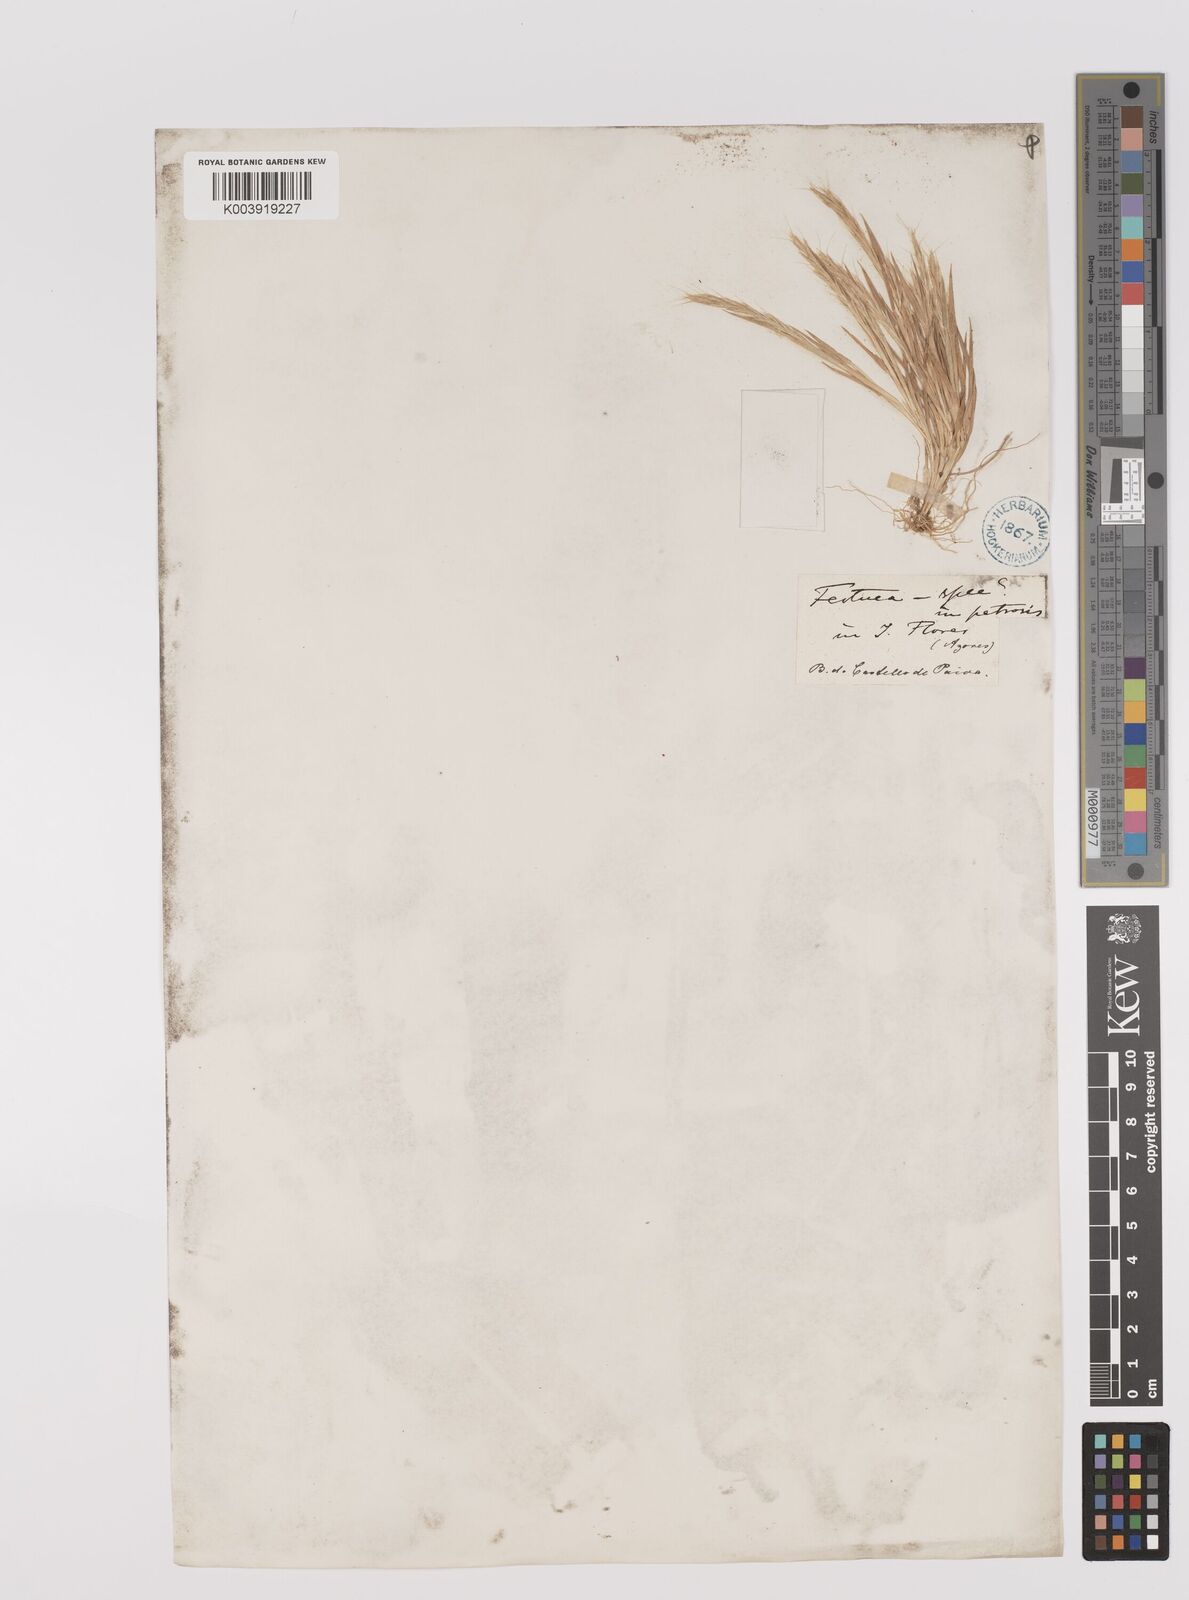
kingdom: Plantae
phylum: Tracheophyta
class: Liliopsida
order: Poales
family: Poaceae
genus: Gaudinia
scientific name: Gaudinia coarctata
